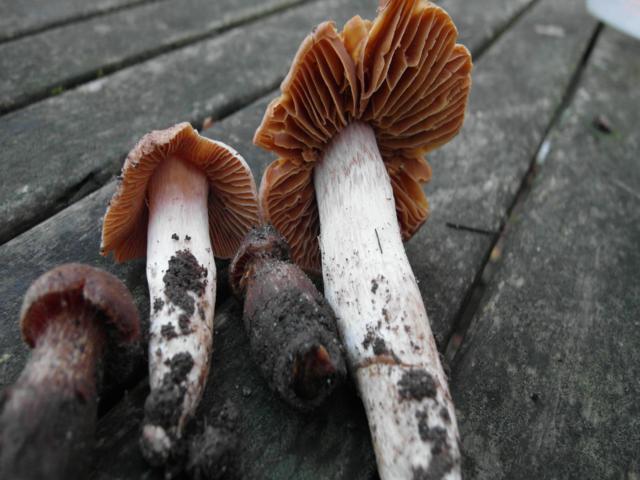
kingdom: Fungi
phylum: Basidiomycota
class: Agaricomycetes
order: Agaricales
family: Cortinariaceae
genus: Cortinarius
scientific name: Cortinarius
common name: jod-slørhat
